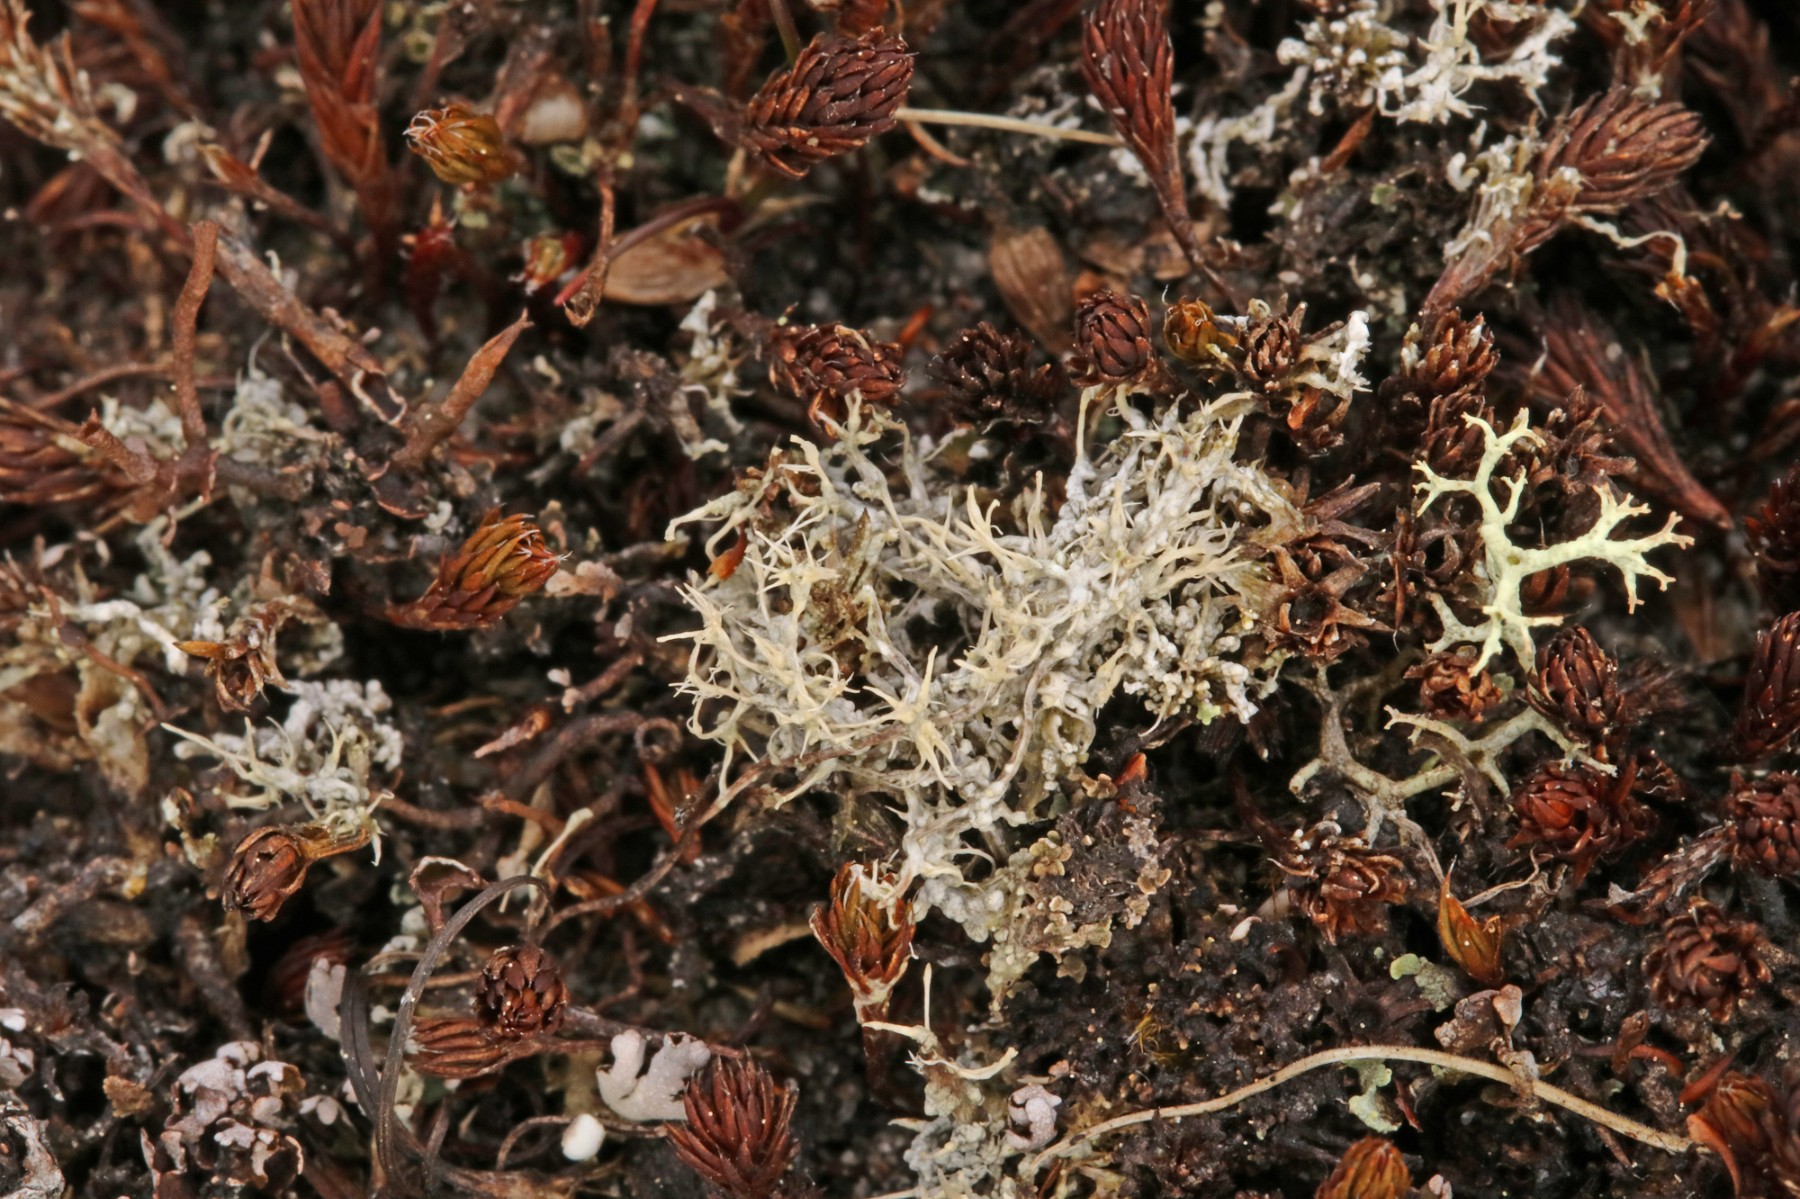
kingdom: Fungi
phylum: Ascomycota
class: Lecanoromycetes
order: Pertusariales
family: Ochrolechiaceae
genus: Ochrolechia
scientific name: Ochrolechia frigida
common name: fjeld-blegskivelav
